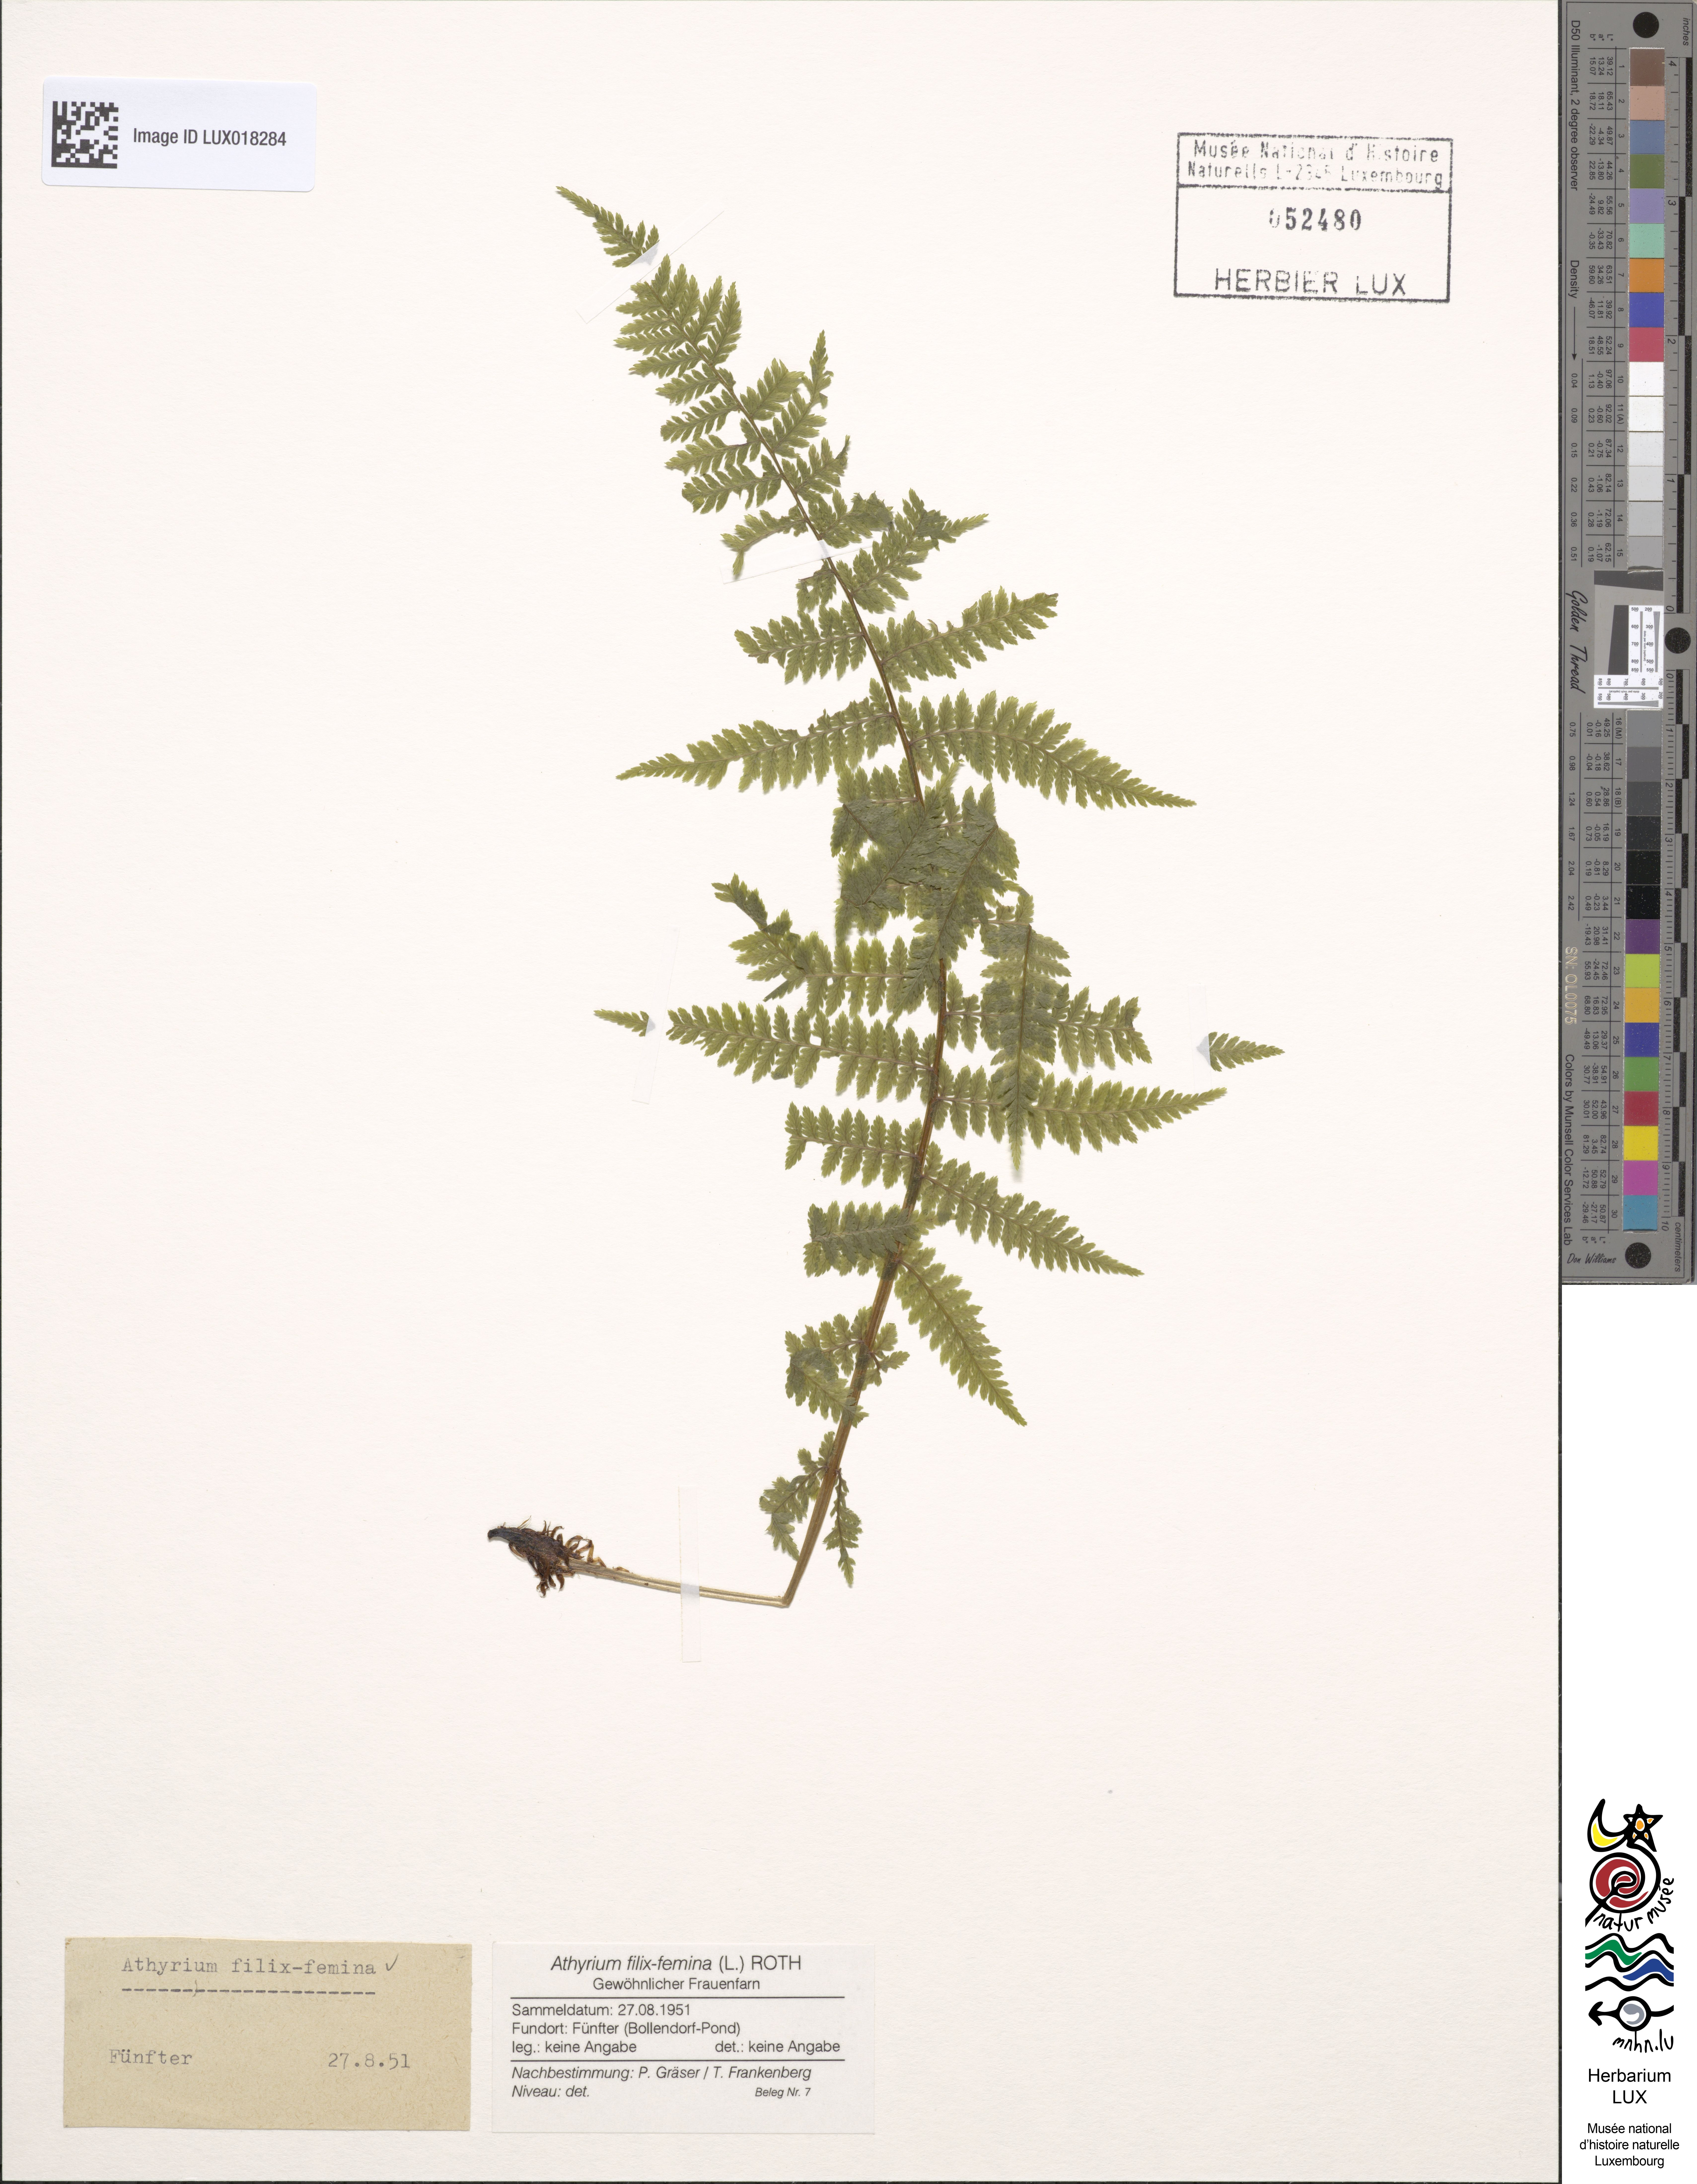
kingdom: Plantae
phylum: Tracheophyta
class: Polypodiopsida
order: Polypodiales
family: Athyriaceae
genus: Athyrium
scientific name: Athyrium filix-femina
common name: Lady fern
